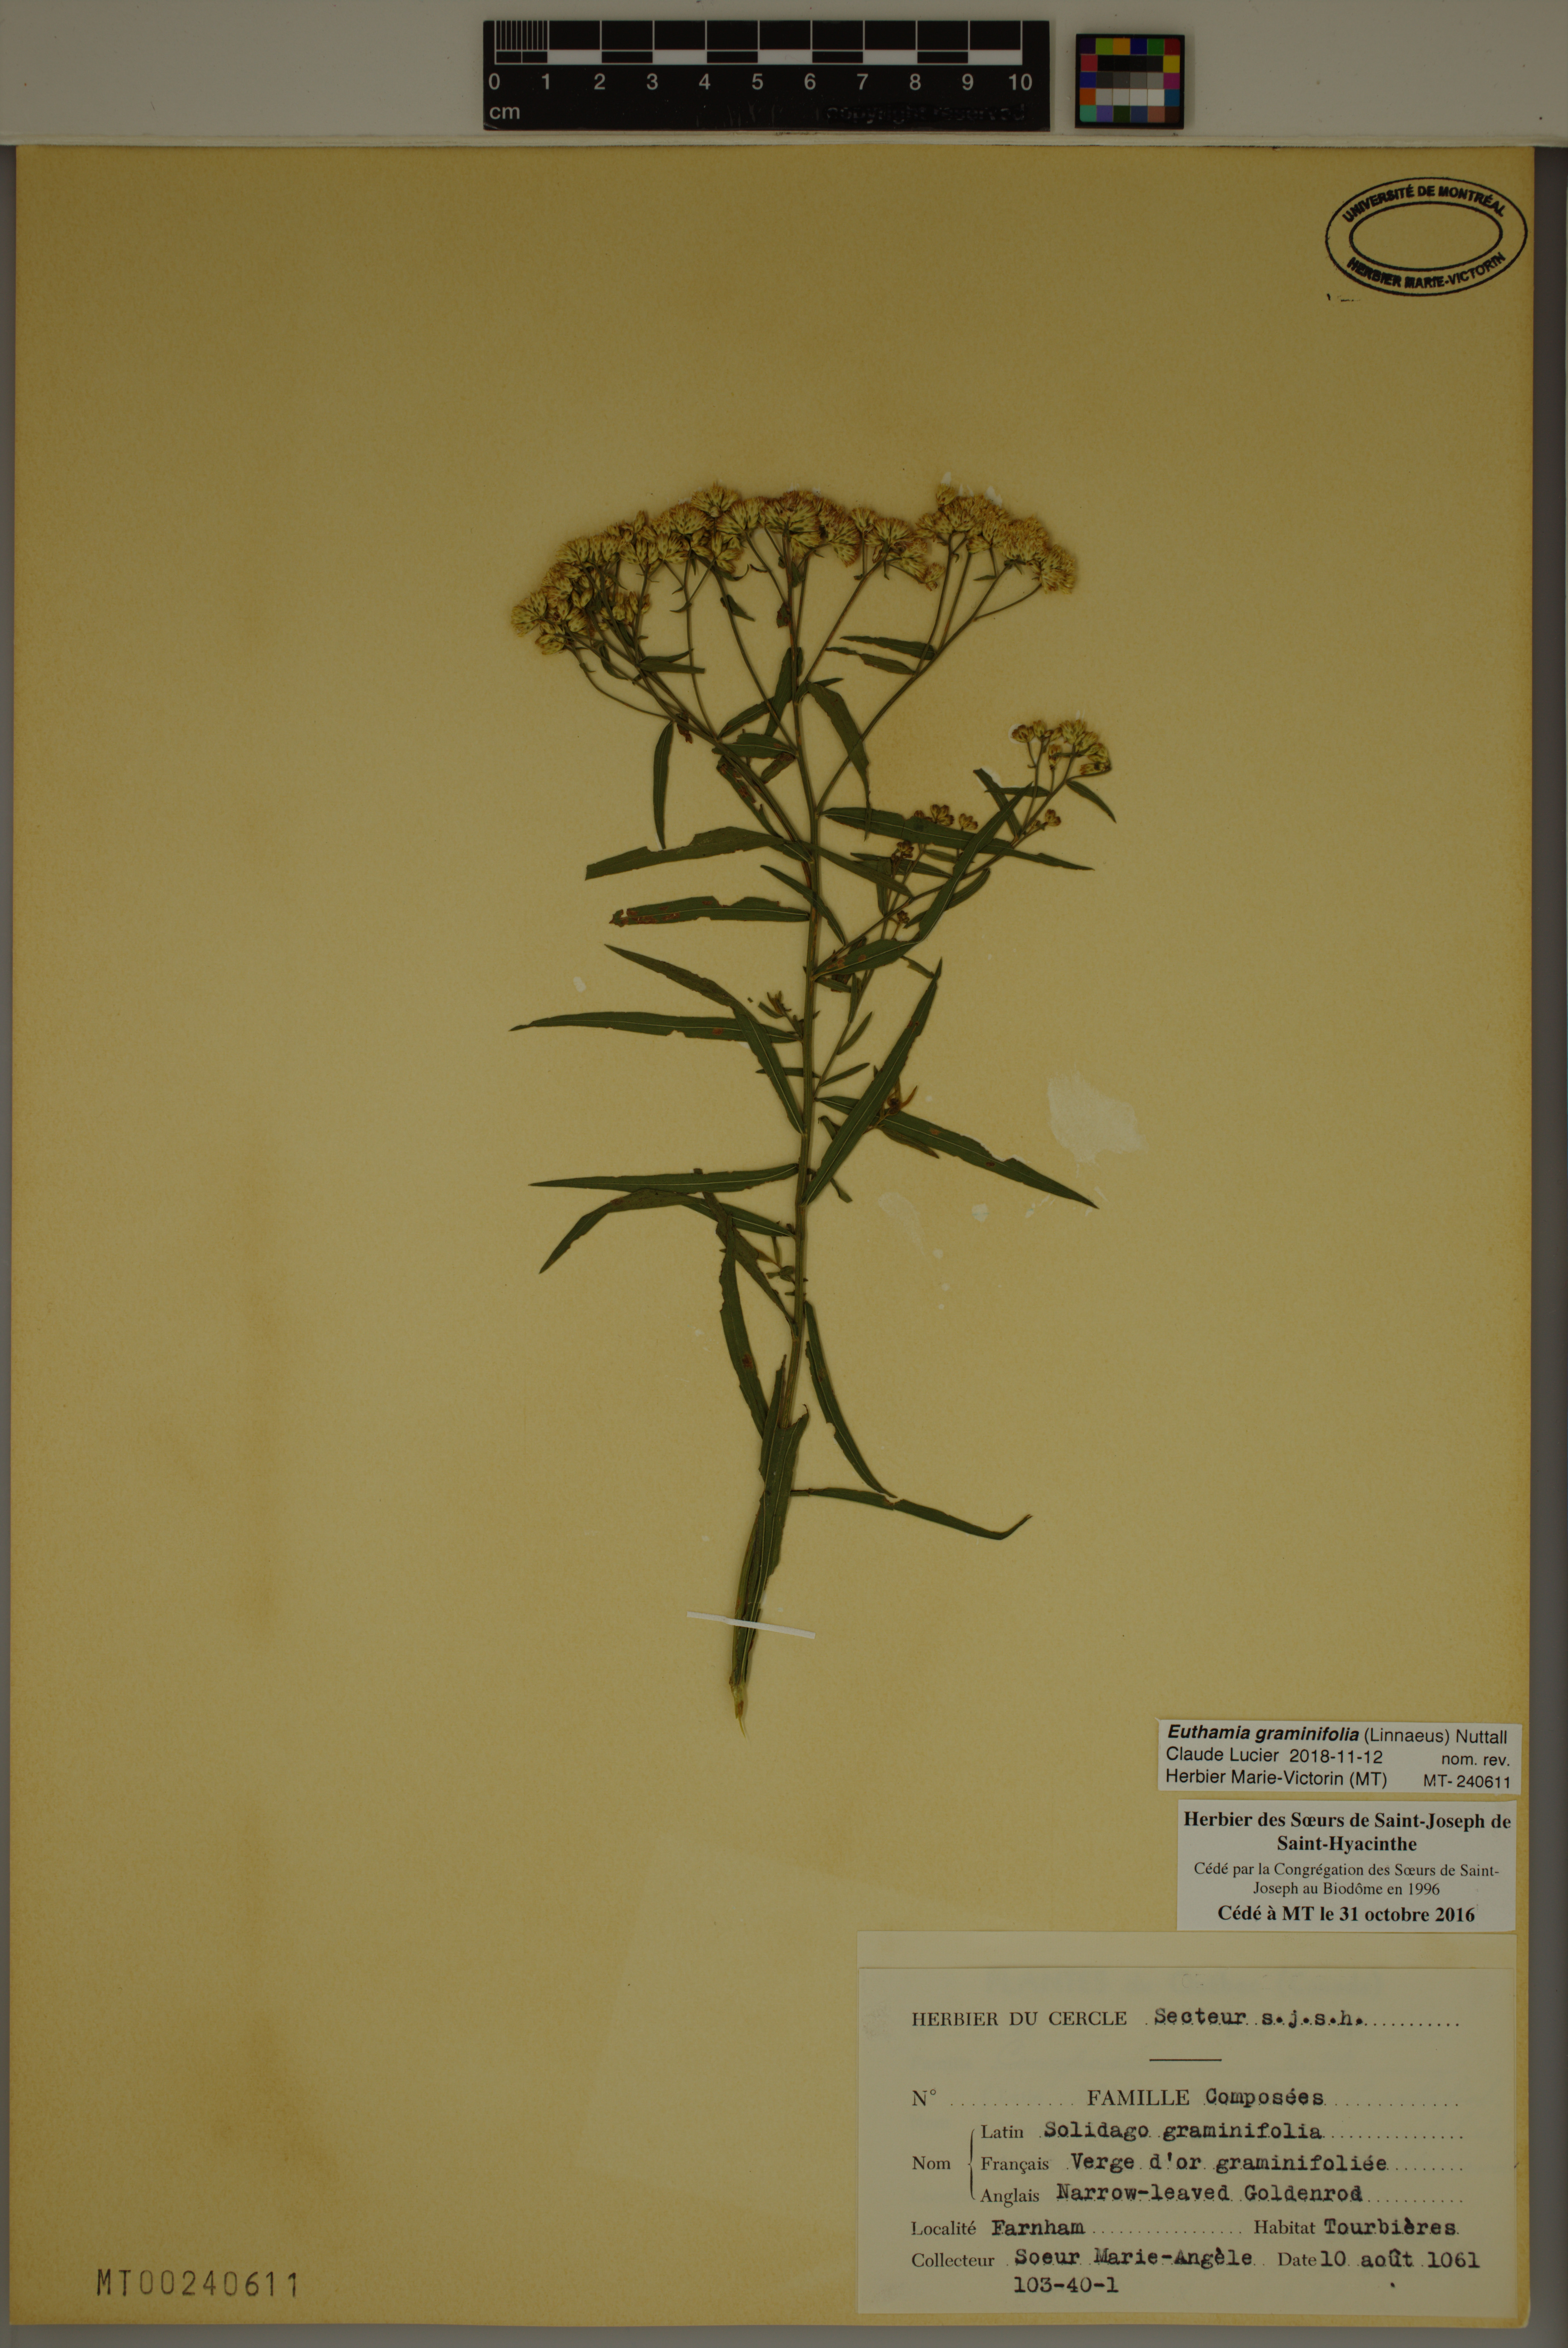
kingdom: Plantae
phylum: Tracheophyta
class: Magnoliopsida
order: Asterales
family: Asteraceae
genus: Euthamia
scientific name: Euthamia graminifolia
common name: Common goldentop
